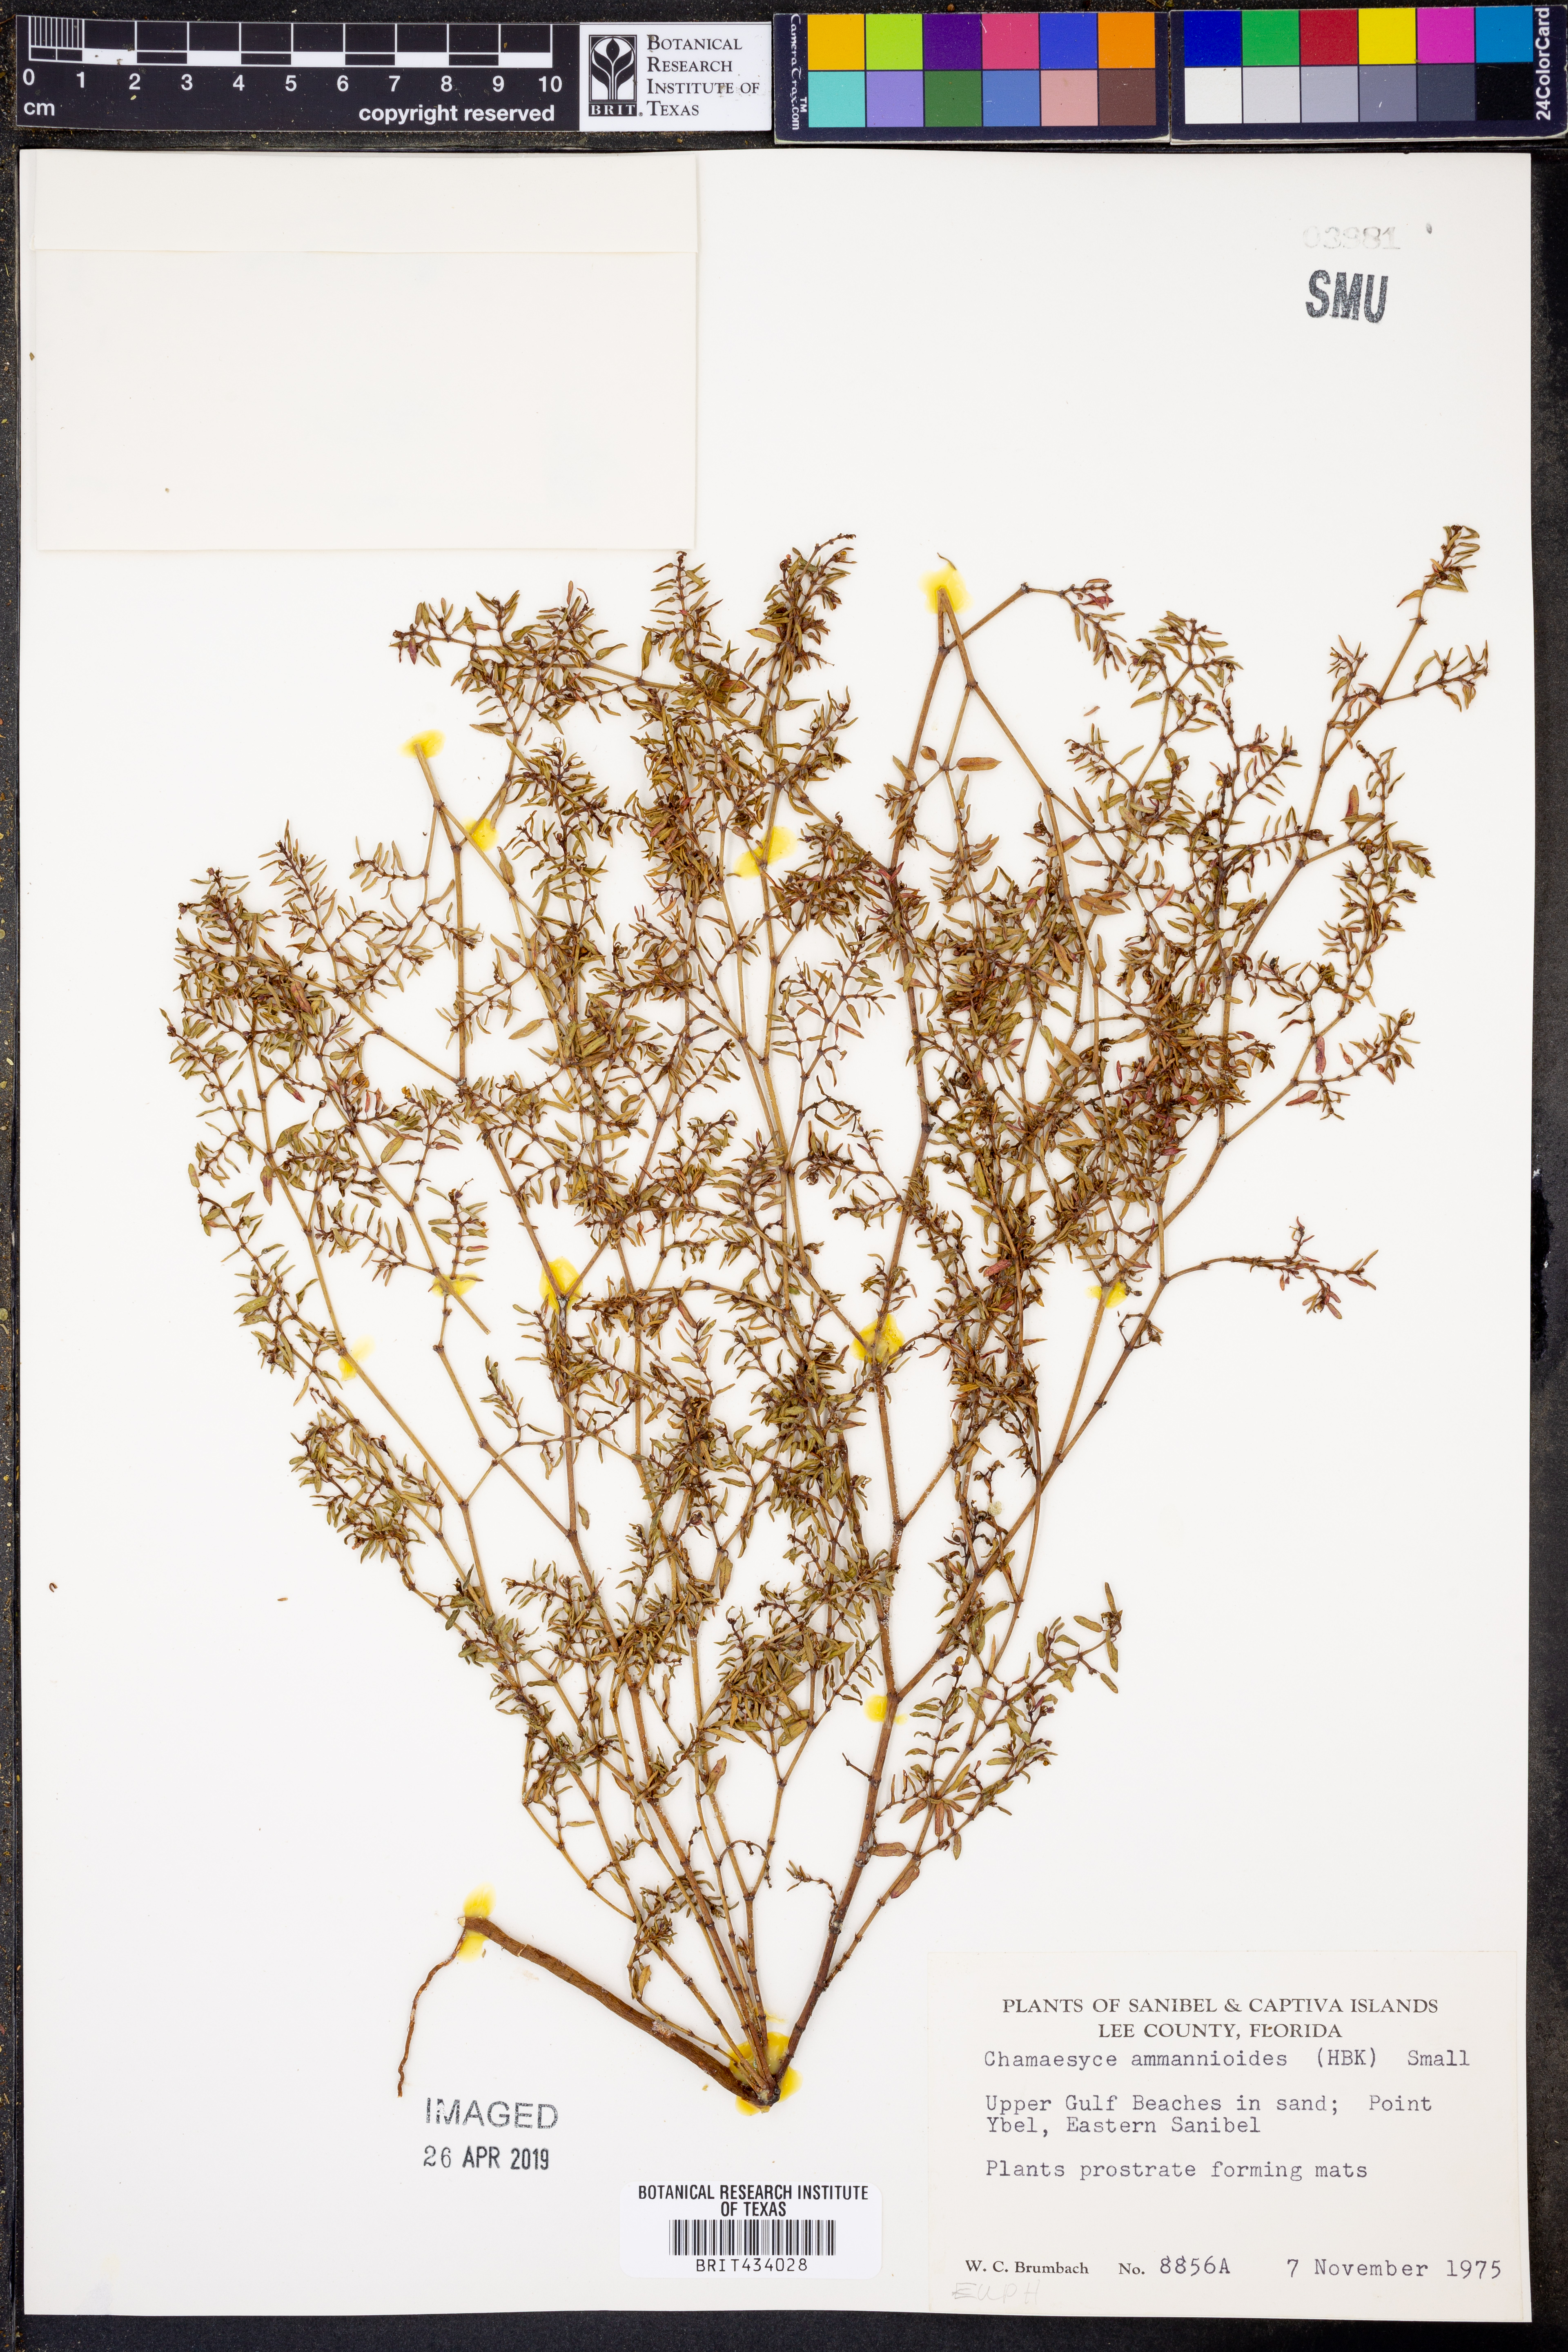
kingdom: Plantae
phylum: Tracheophyta
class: Magnoliopsida
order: Malpighiales
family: Euphorbiaceae
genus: Euphorbia
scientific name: Euphorbia bombensis
